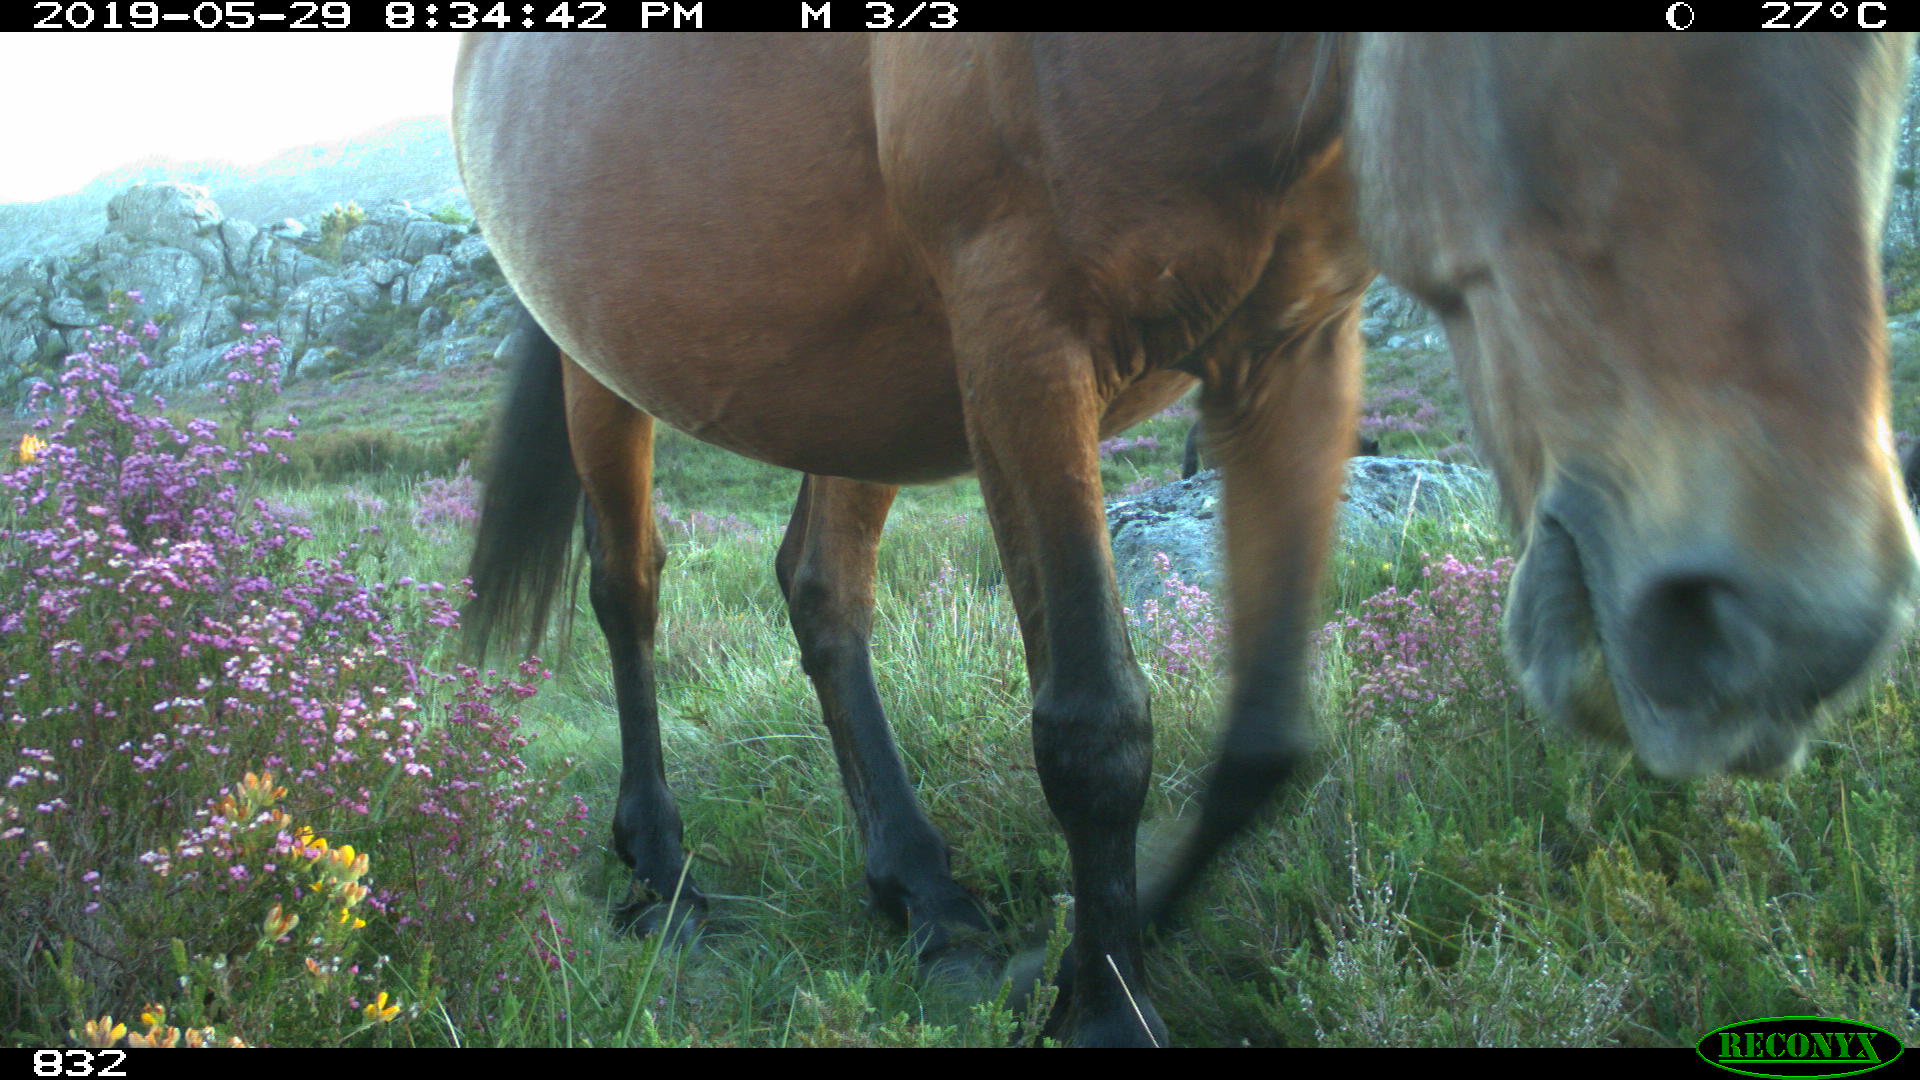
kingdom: Animalia
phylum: Chordata
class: Mammalia
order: Perissodactyla
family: Equidae
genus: Equus
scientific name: Equus caballus
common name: Horse
